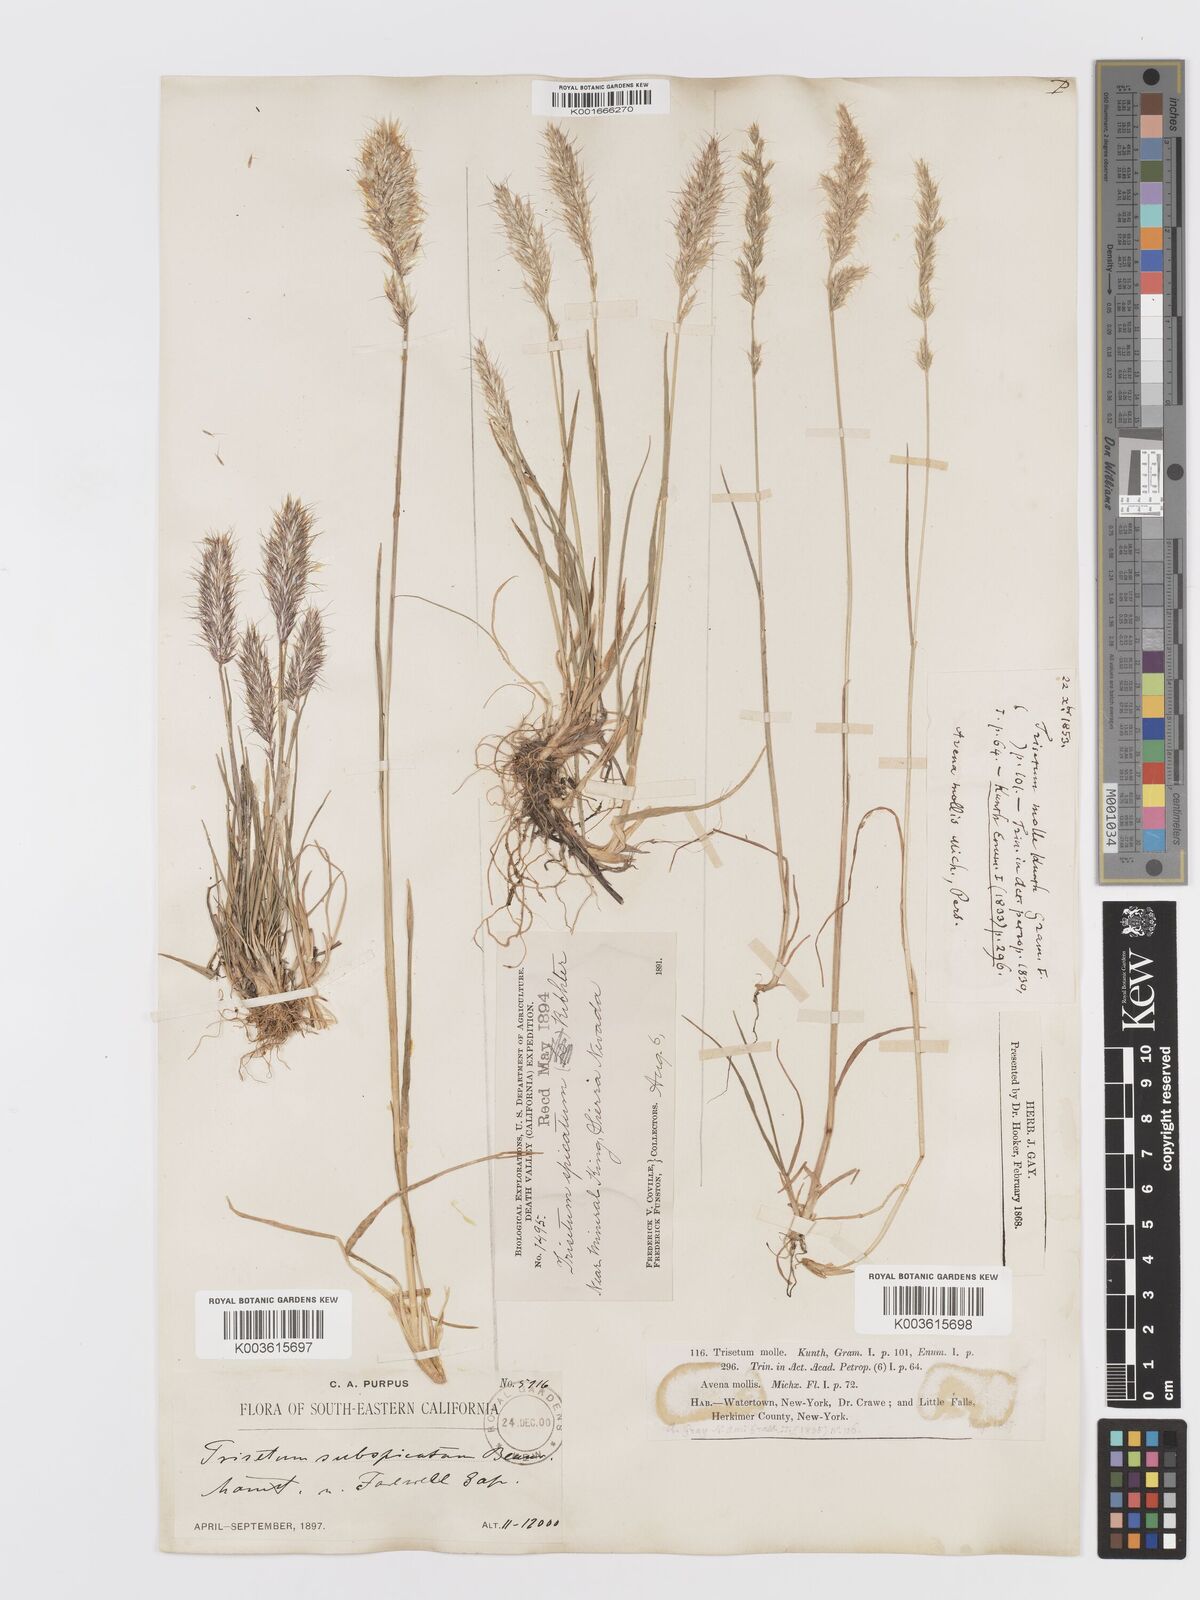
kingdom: Plantae
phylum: Tracheophyta
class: Liliopsida
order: Poales
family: Poaceae
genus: Koeleria
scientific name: Koeleria spicata
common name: Mountain trisetum
